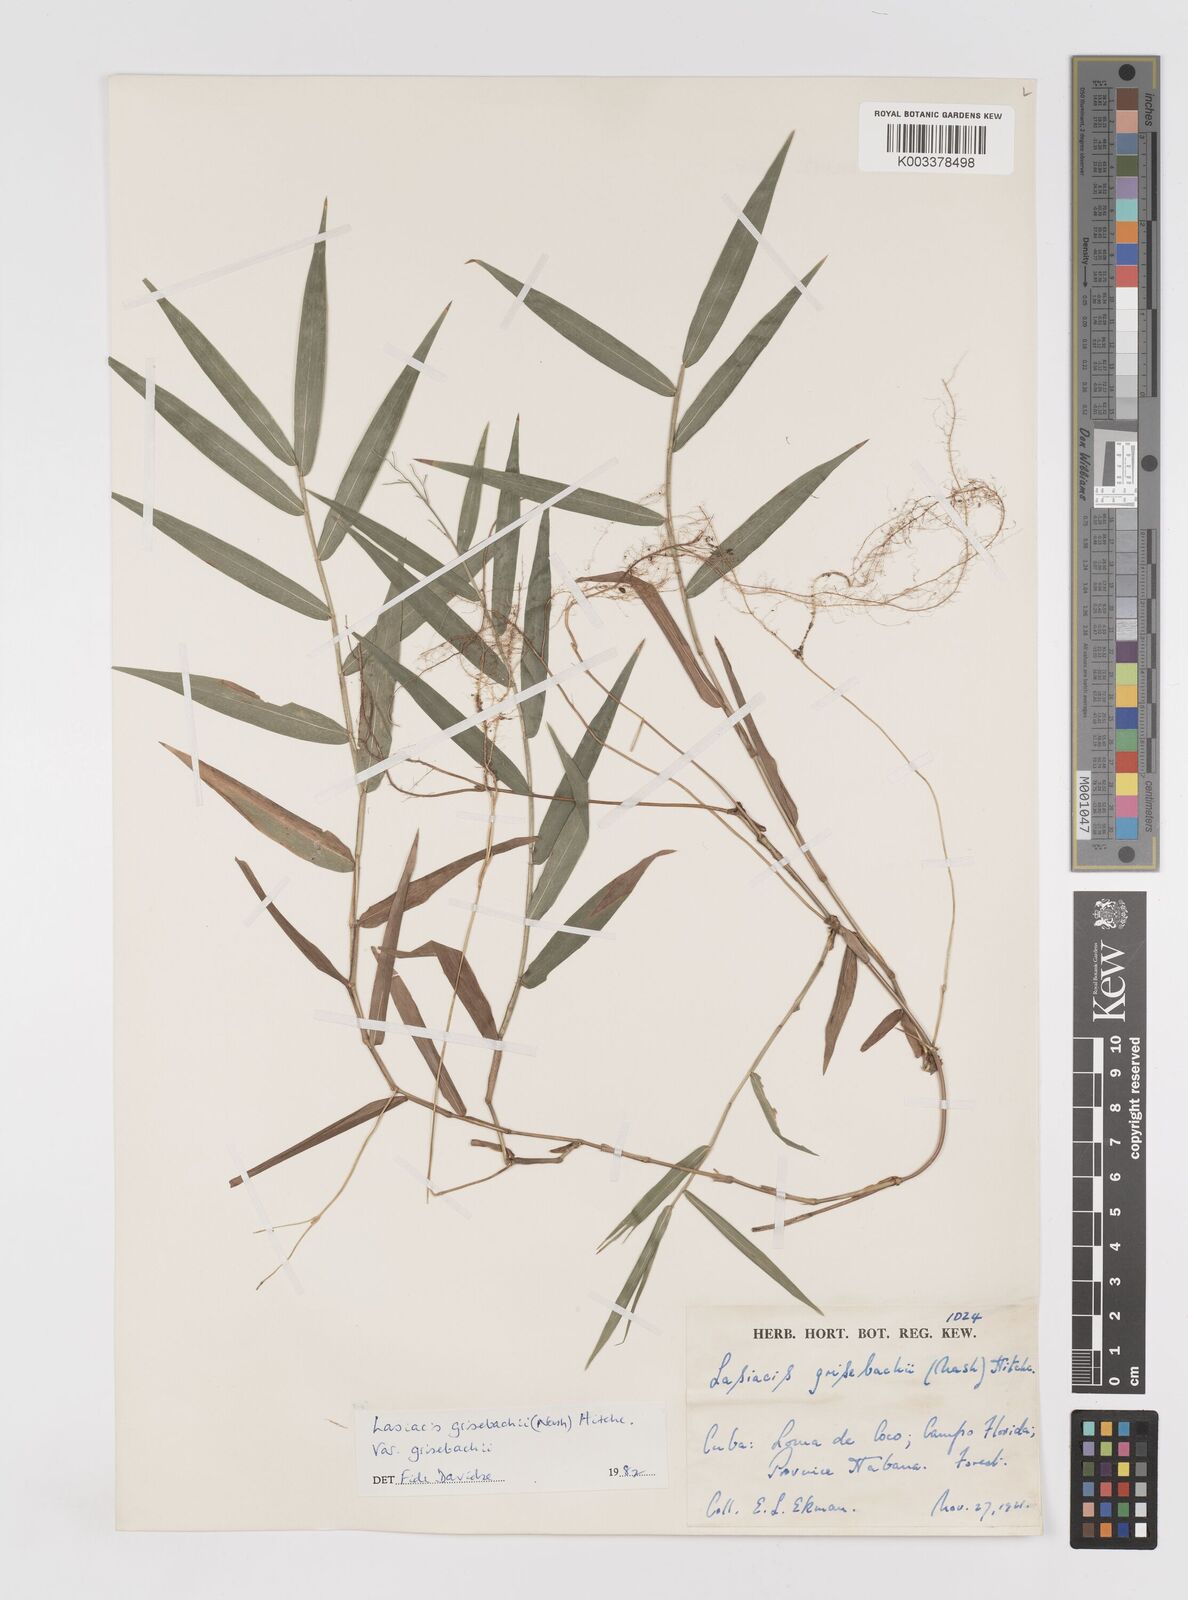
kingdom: Plantae
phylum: Tracheophyta
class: Liliopsida
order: Poales
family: Poaceae
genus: Lasiacis
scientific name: Lasiacis grisebachii
